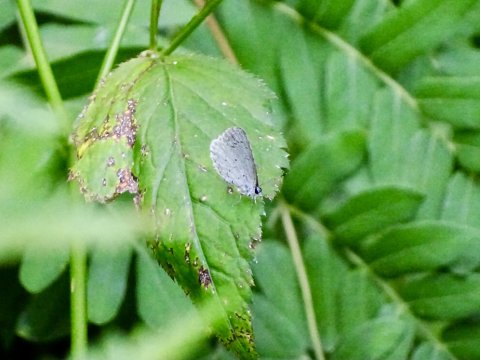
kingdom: Animalia
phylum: Arthropoda
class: Insecta
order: Lepidoptera
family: Lycaenidae
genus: Cyaniris
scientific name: Cyaniris neglecta
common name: Summer Azure
